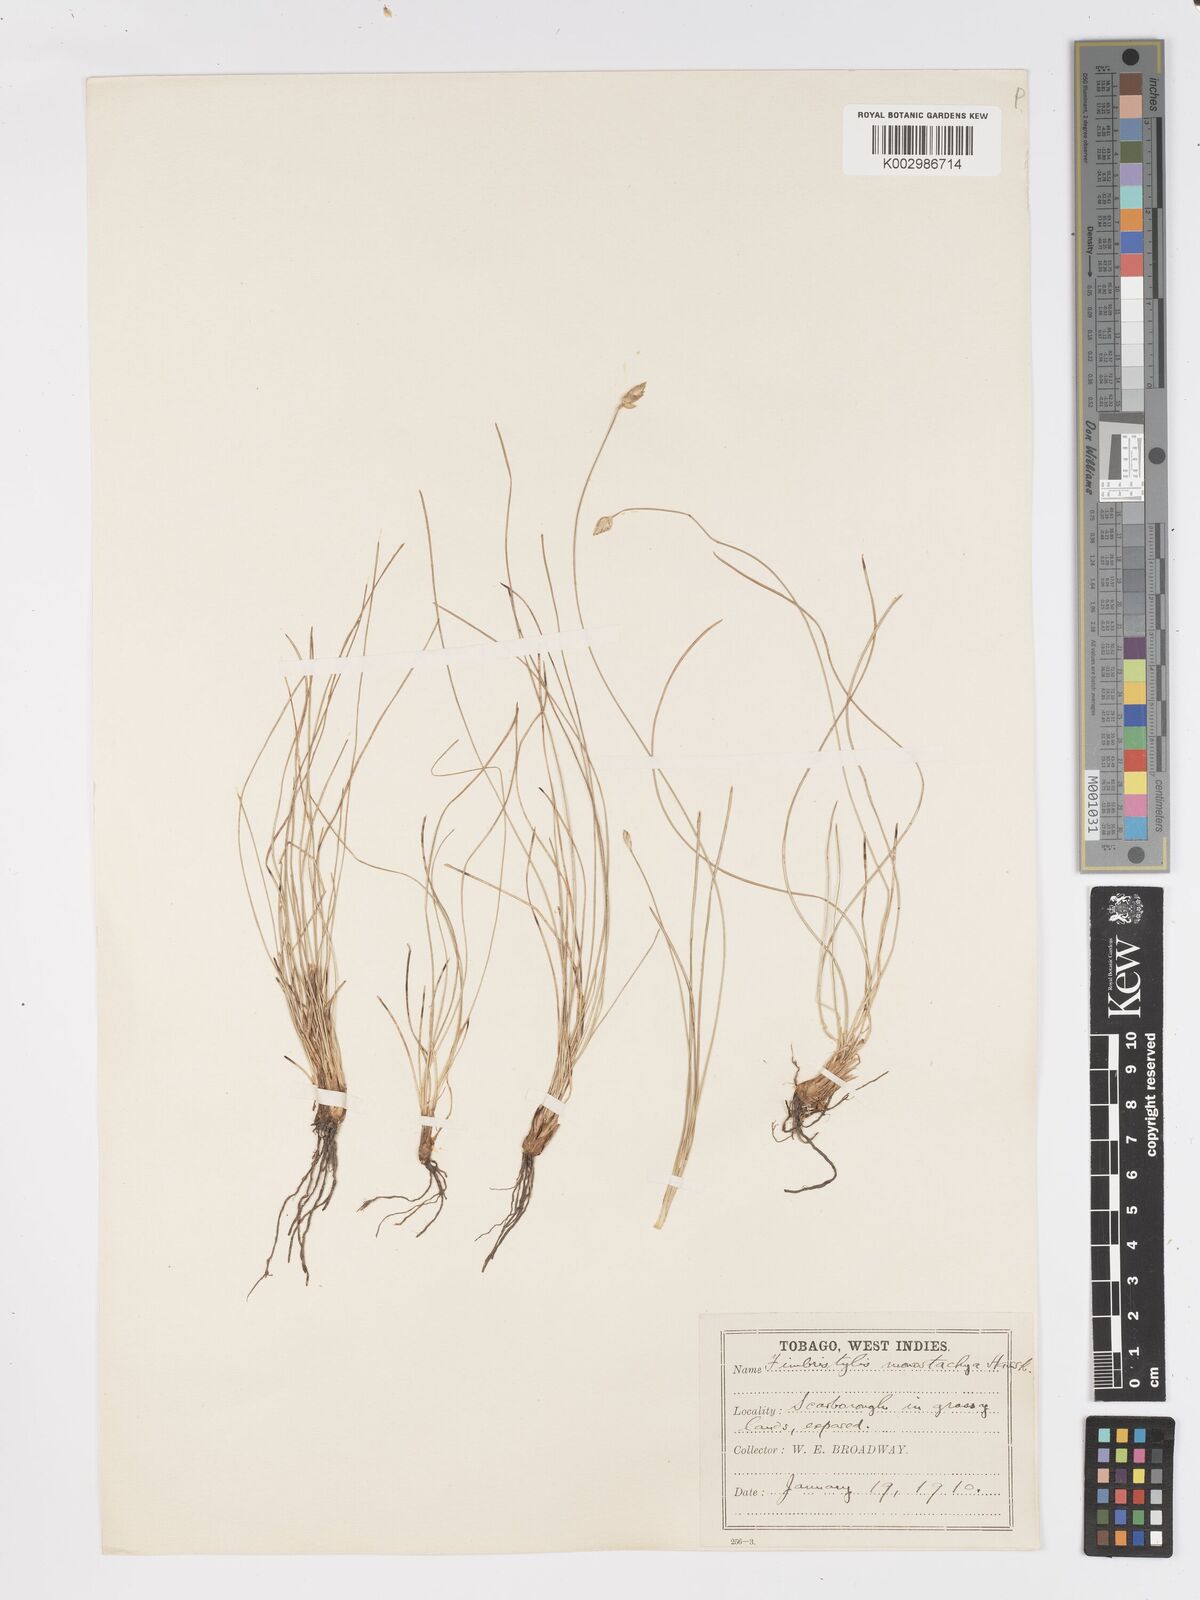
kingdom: Plantae
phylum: Tracheophyta
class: Liliopsida
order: Poales
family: Cyperaceae
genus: Fimbristylis
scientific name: Fimbristylis
